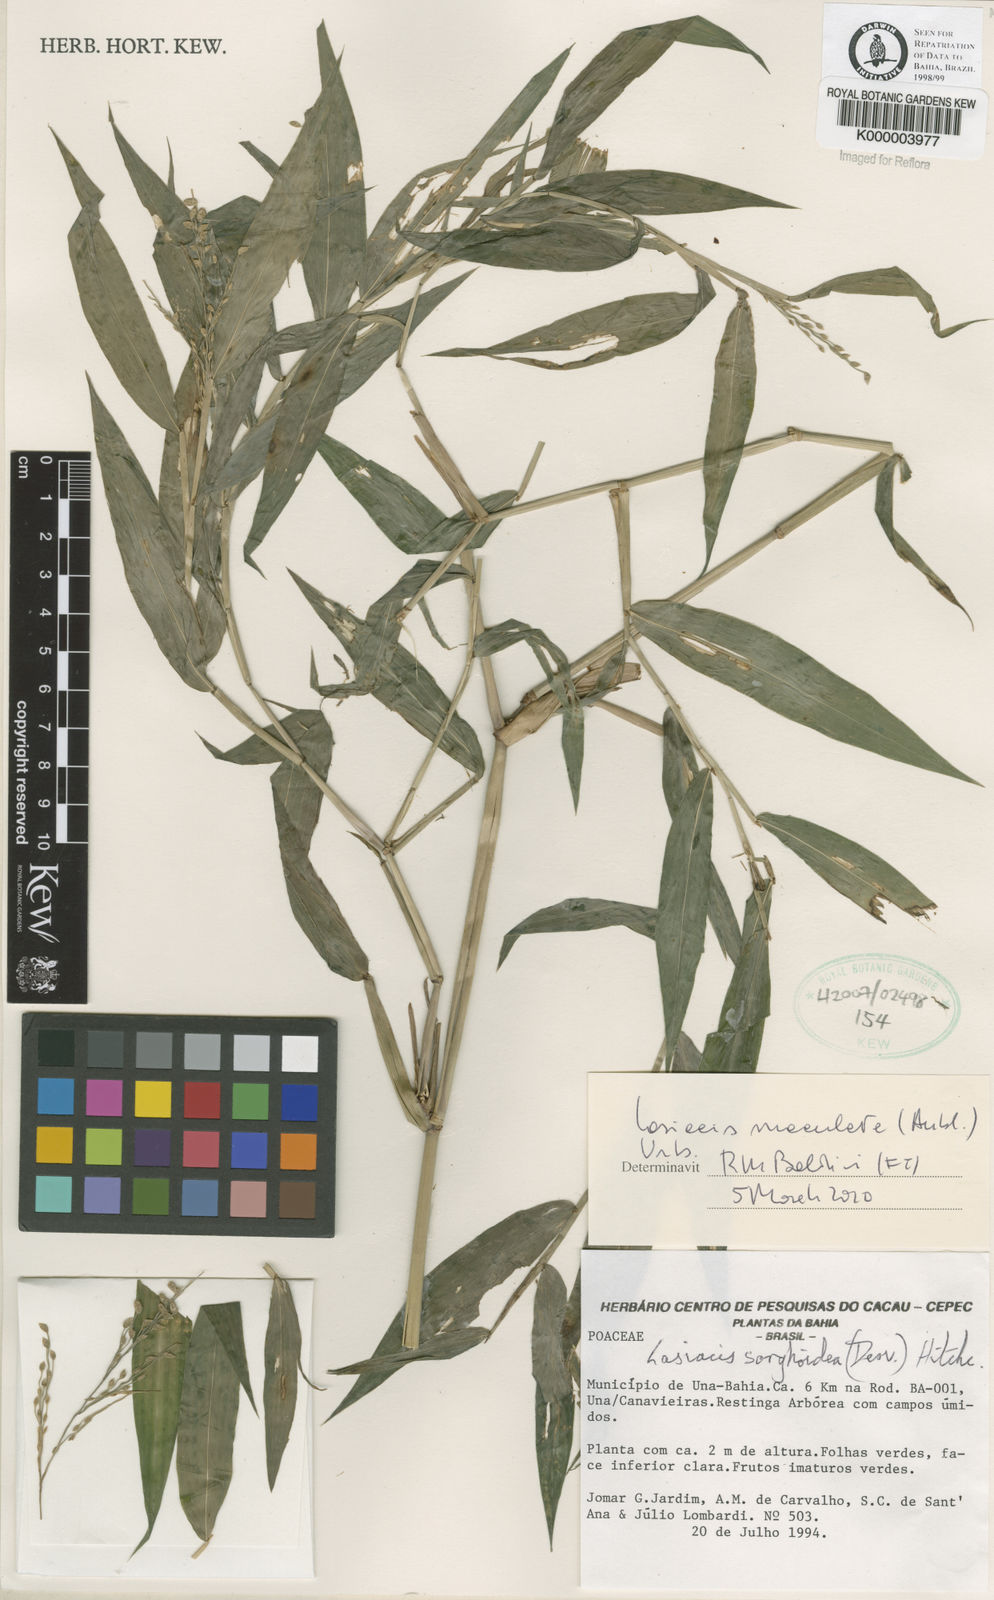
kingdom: Plantae
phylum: Tracheophyta
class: Liliopsida
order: Poales
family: Poaceae
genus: Lasiacis
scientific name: Lasiacis maculata
